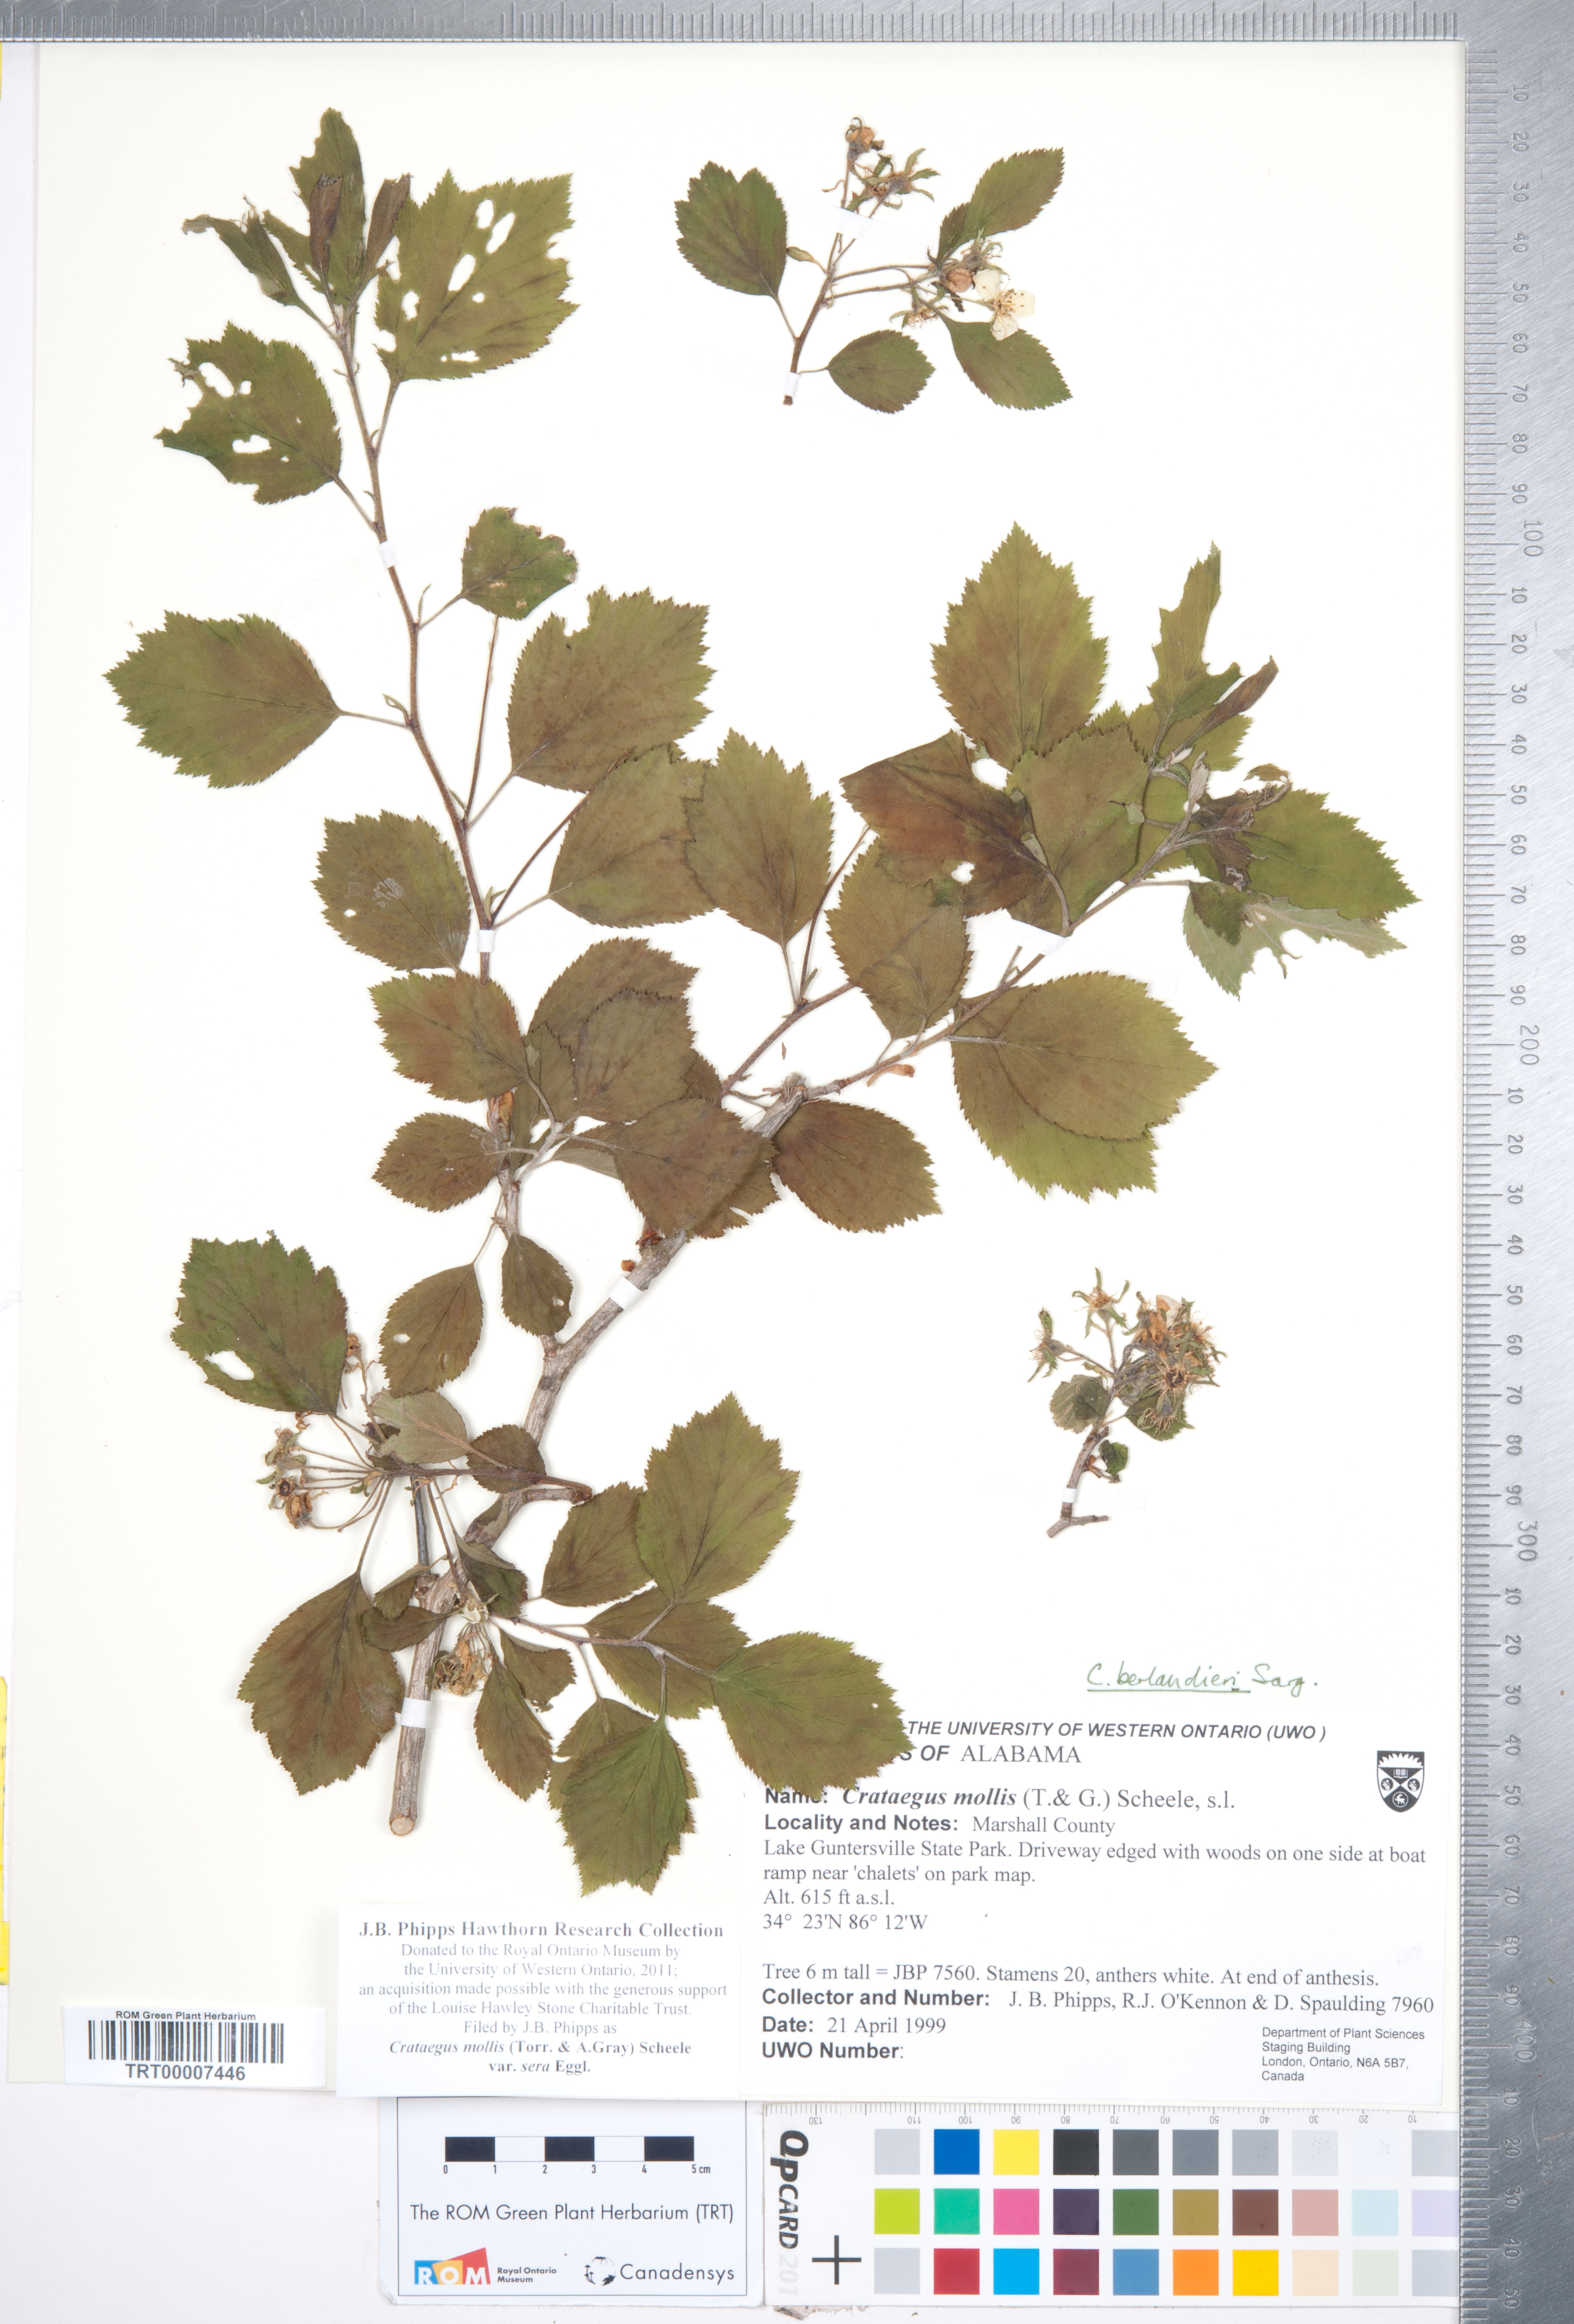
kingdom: Plantae
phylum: Tracheophyta
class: Magnoliopsida
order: Rosales
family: Rosaceae
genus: Crataegus
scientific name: Crataegus mollis
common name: Downy hawthorn
